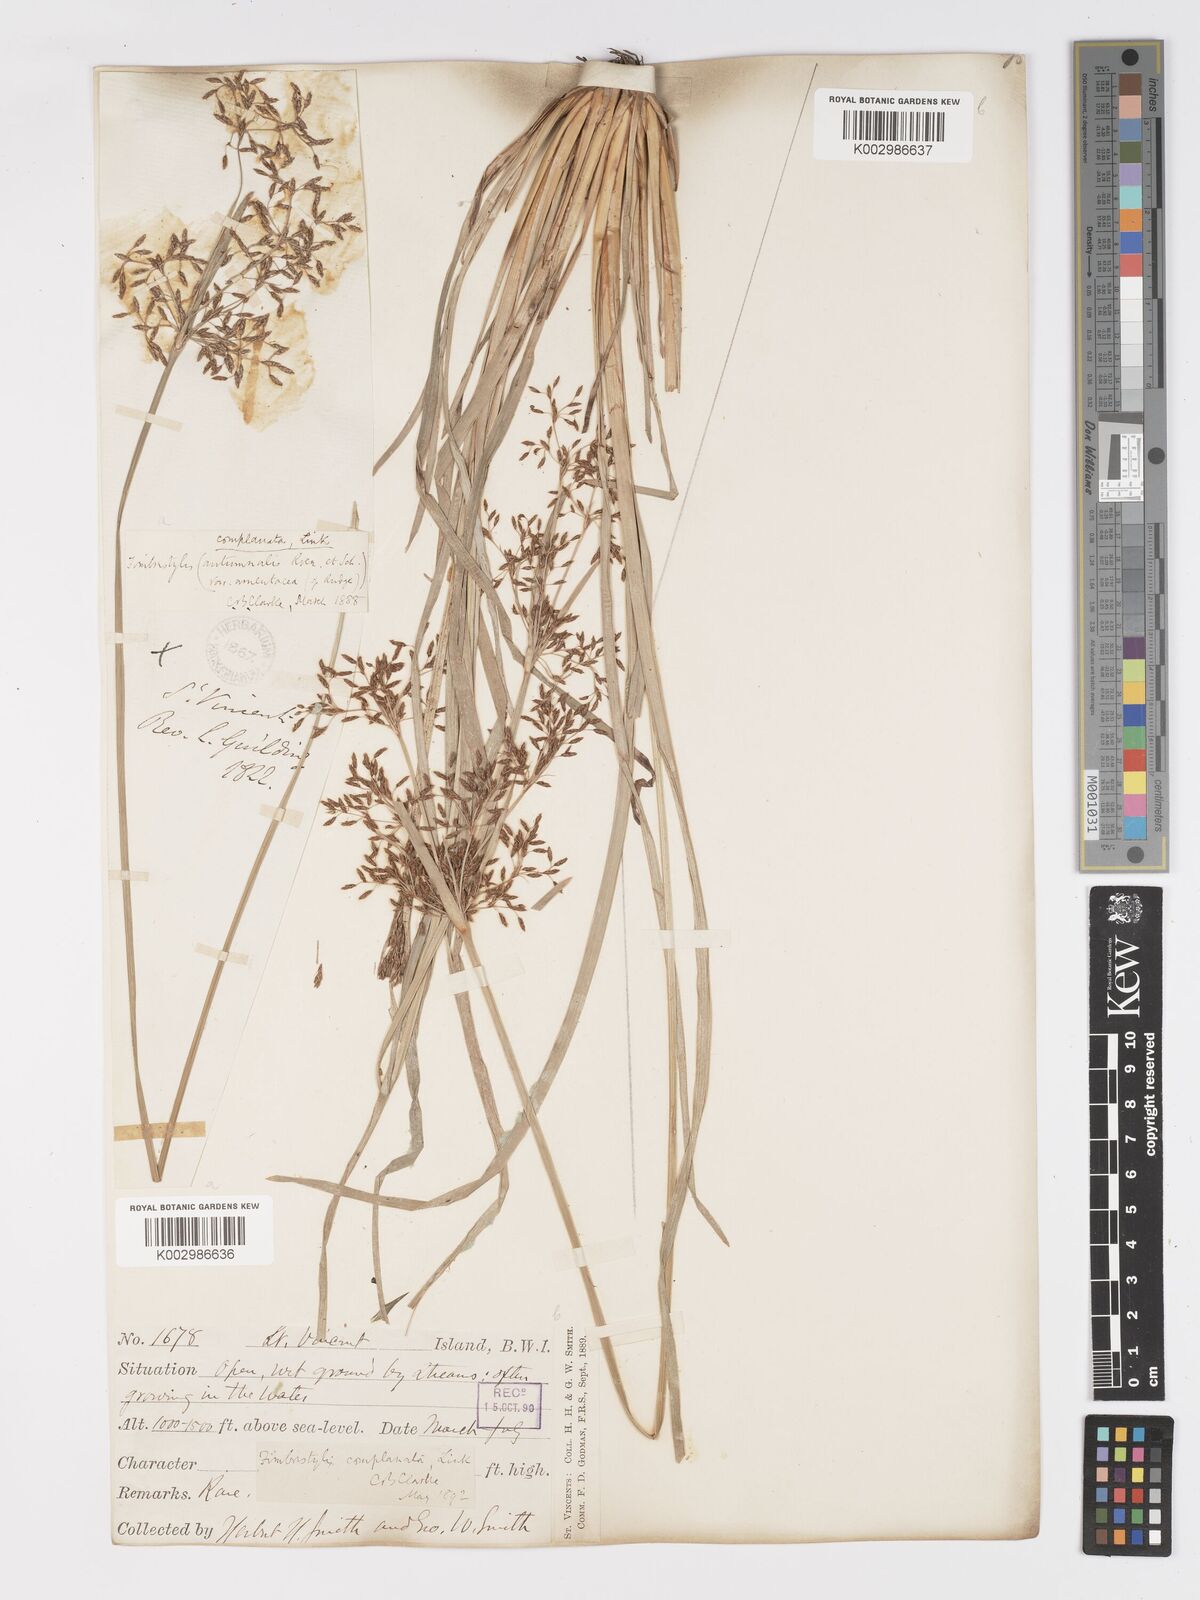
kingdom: Plantae
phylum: Tracheophyta
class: Liliopsida
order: Poales
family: Cyperaceae
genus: Fimbristylis
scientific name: Fimbristylis complanata
